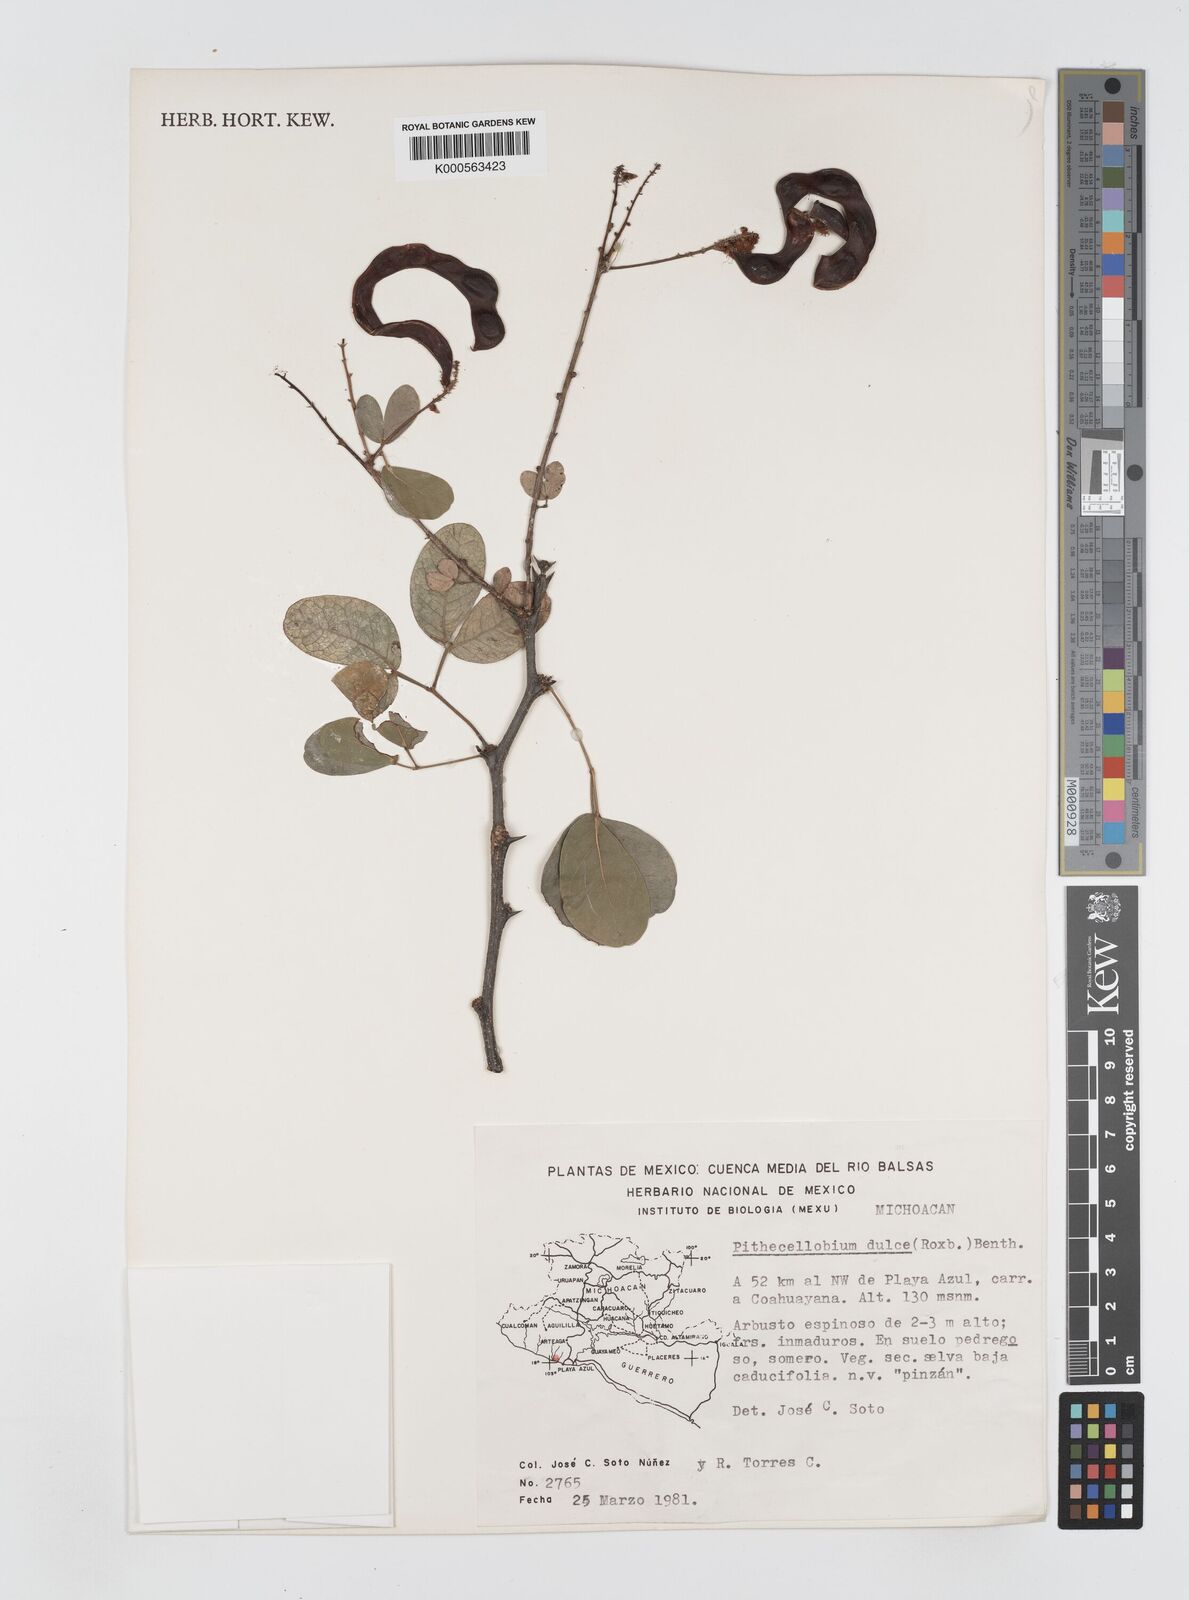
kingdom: Plantae
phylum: Tracheophyta
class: Magnoliopsida
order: Fabales
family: Fabaceae
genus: Pithecellobium
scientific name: Pithecellobium dulce
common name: Monkeypod
